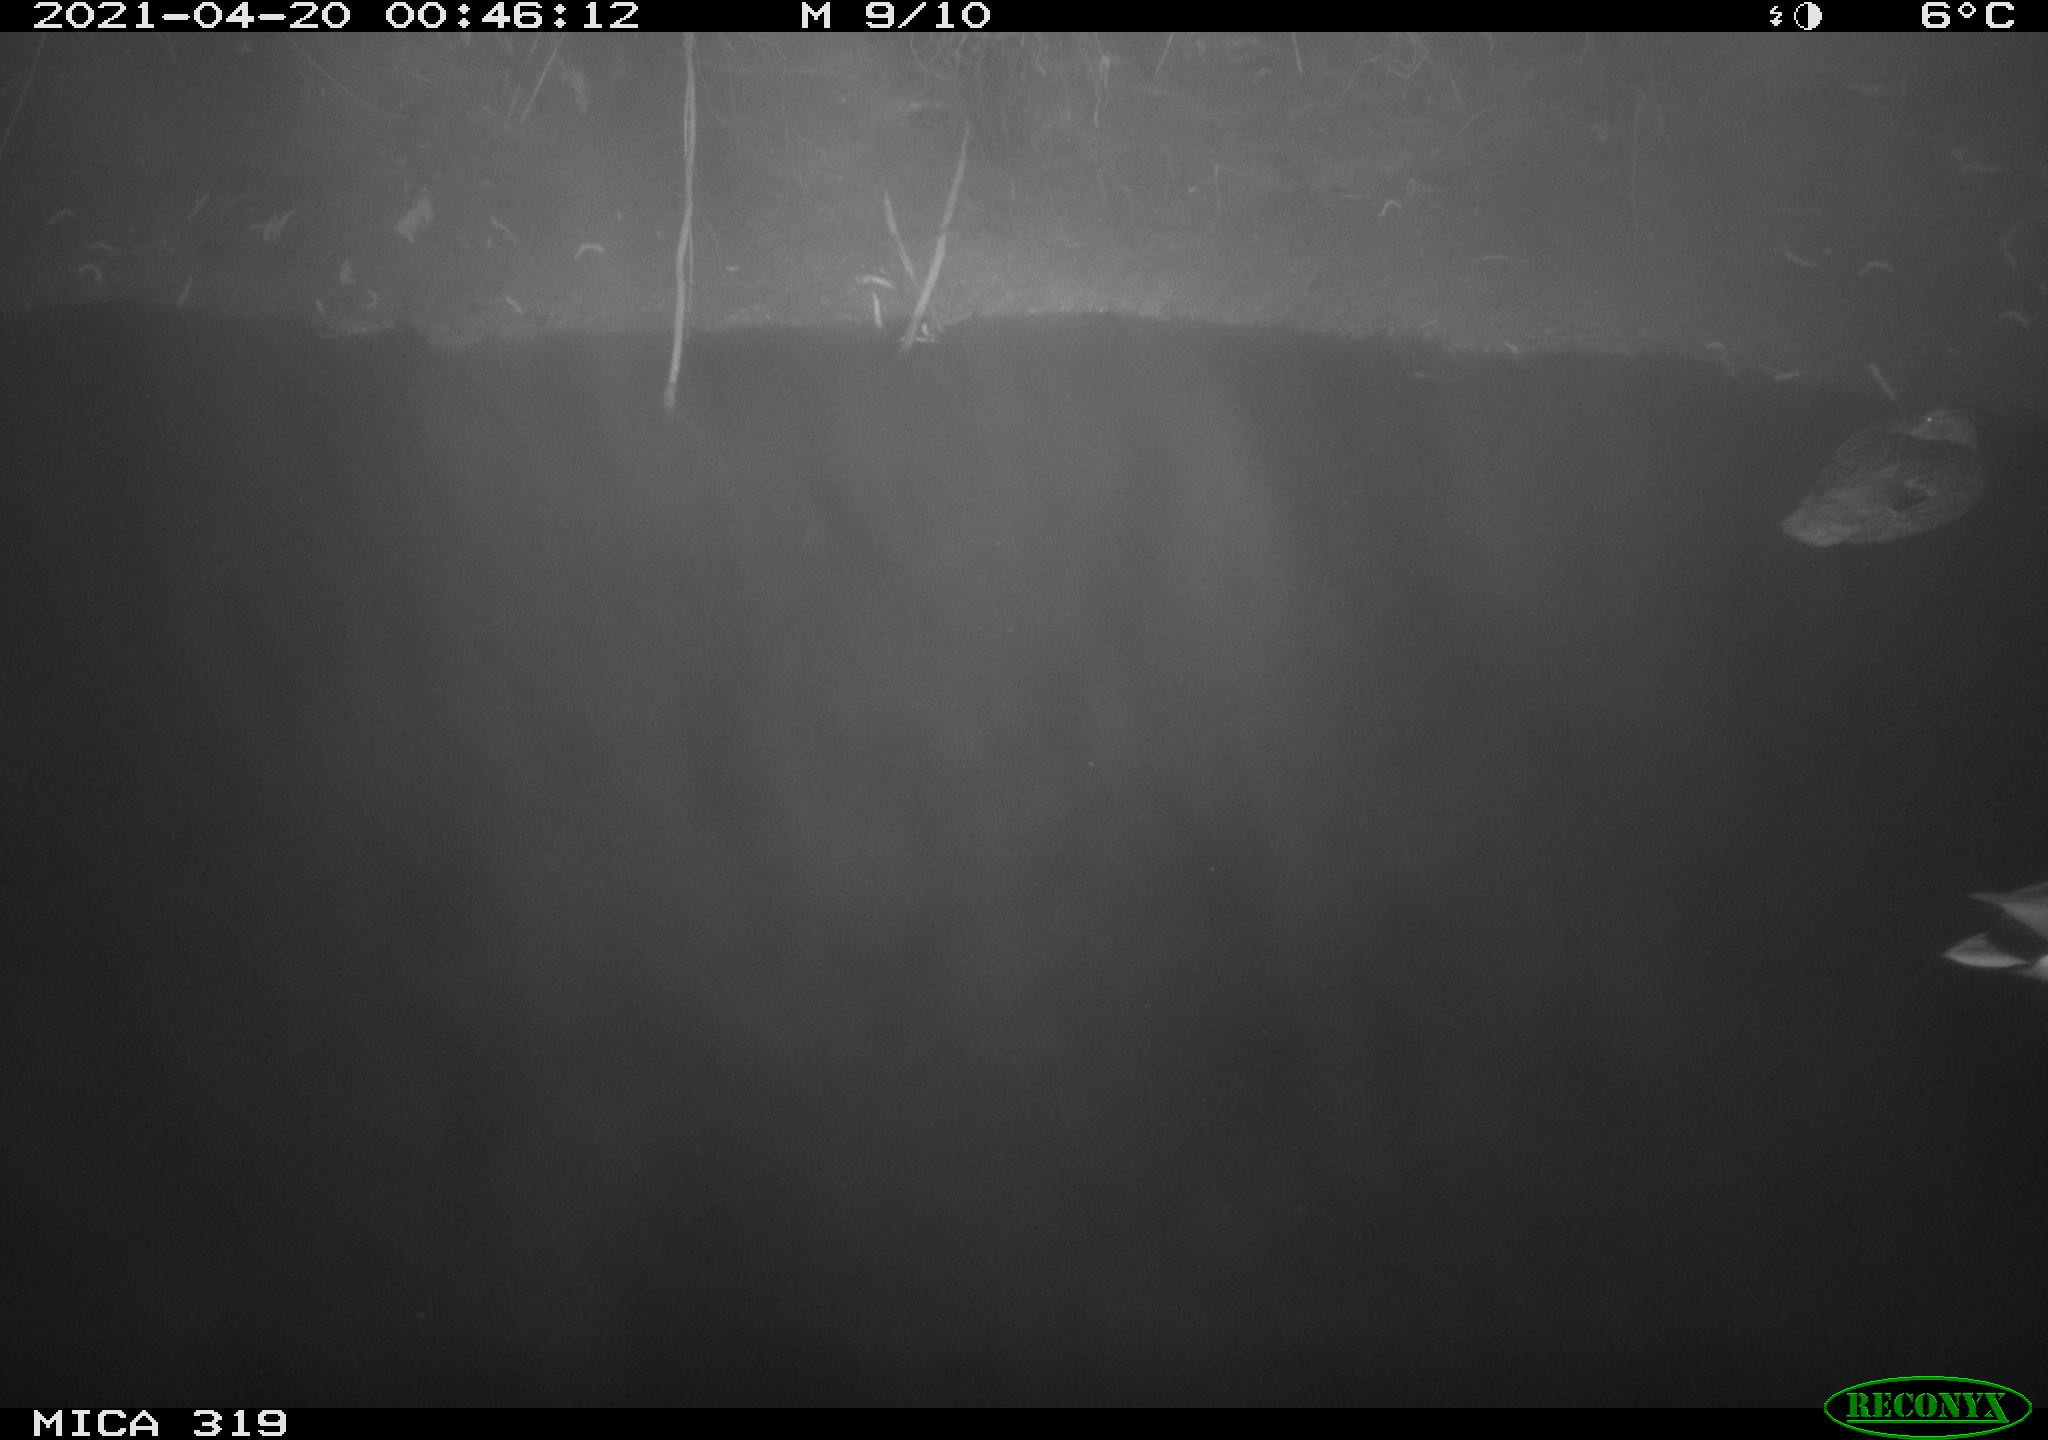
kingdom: Animalia
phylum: Chordata
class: Aves
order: Anseriformes
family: Anatidae
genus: Anas
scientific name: Anas platyrhynchos
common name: Mallard
